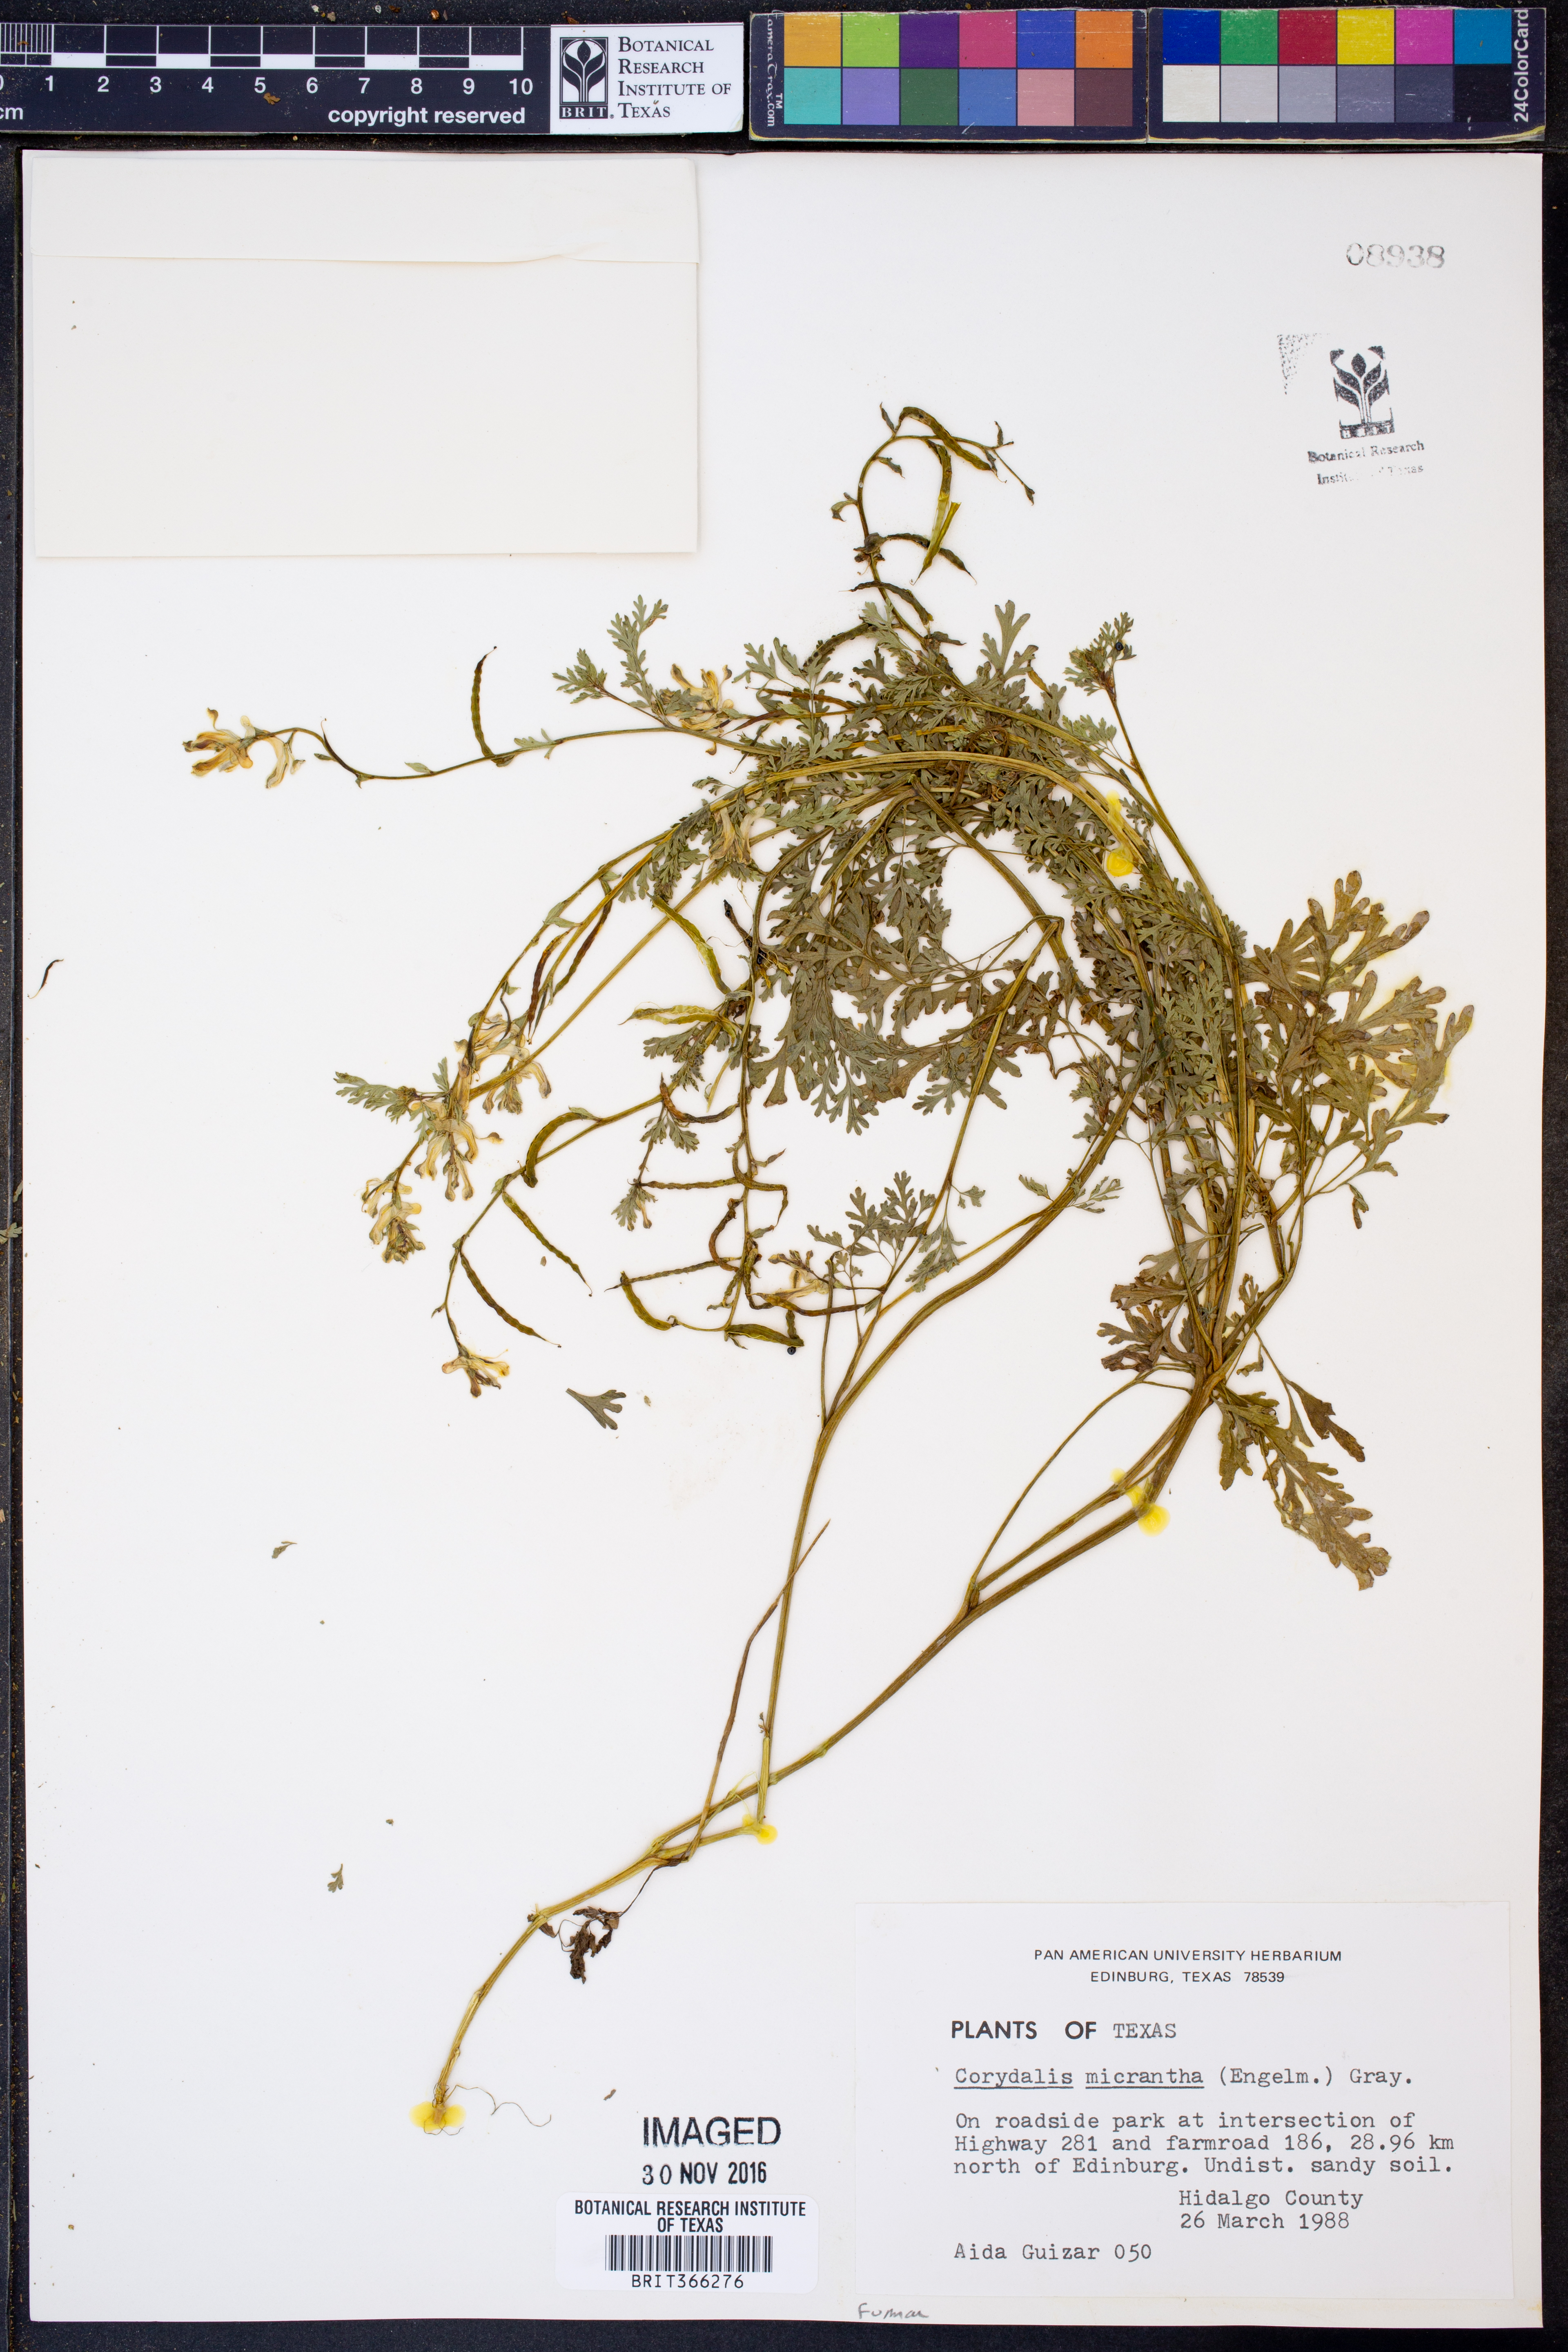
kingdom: Plantae
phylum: Tracheophyta
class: Magnoliopsida
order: Ranunculales
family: Papaveraceae
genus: Corydalis
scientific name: Corydalis micrantha
